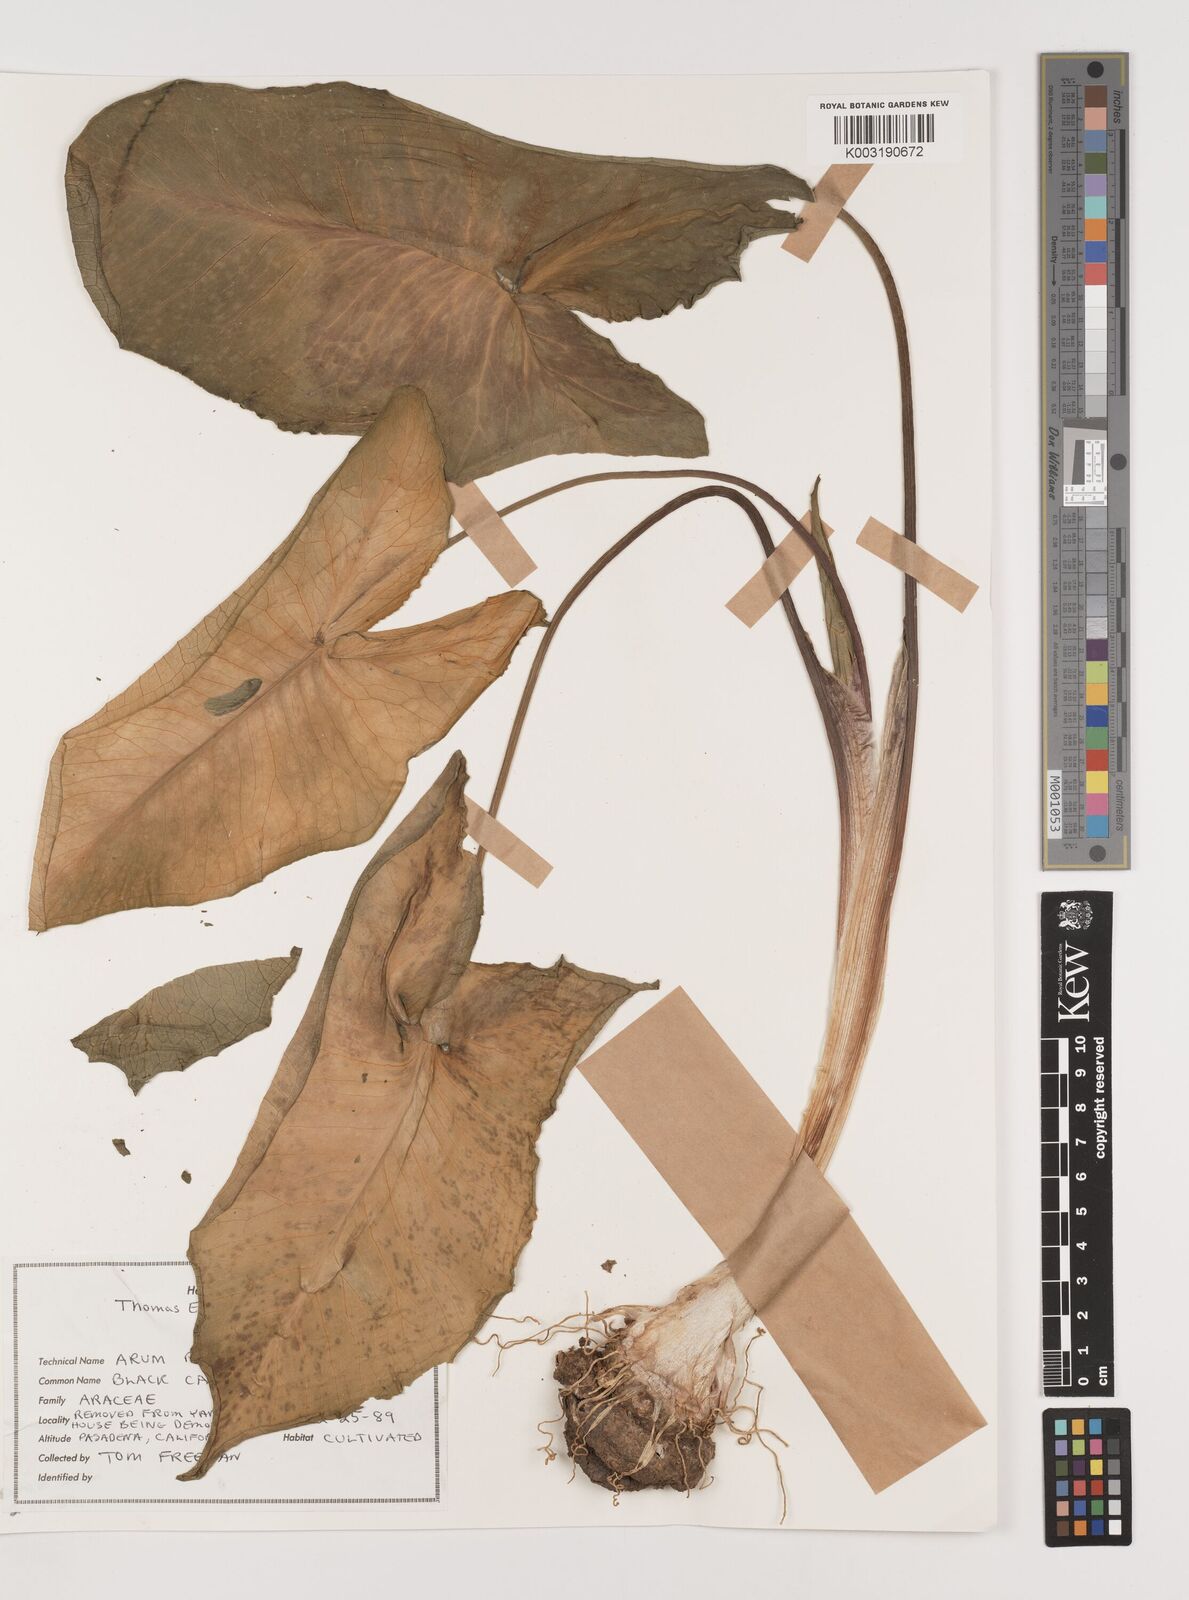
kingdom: Plantae
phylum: Tracheophyta
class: Liliopsida
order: Alismatales
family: Araceae
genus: Arum
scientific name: Arum palaestinum
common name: Solomon's lily
